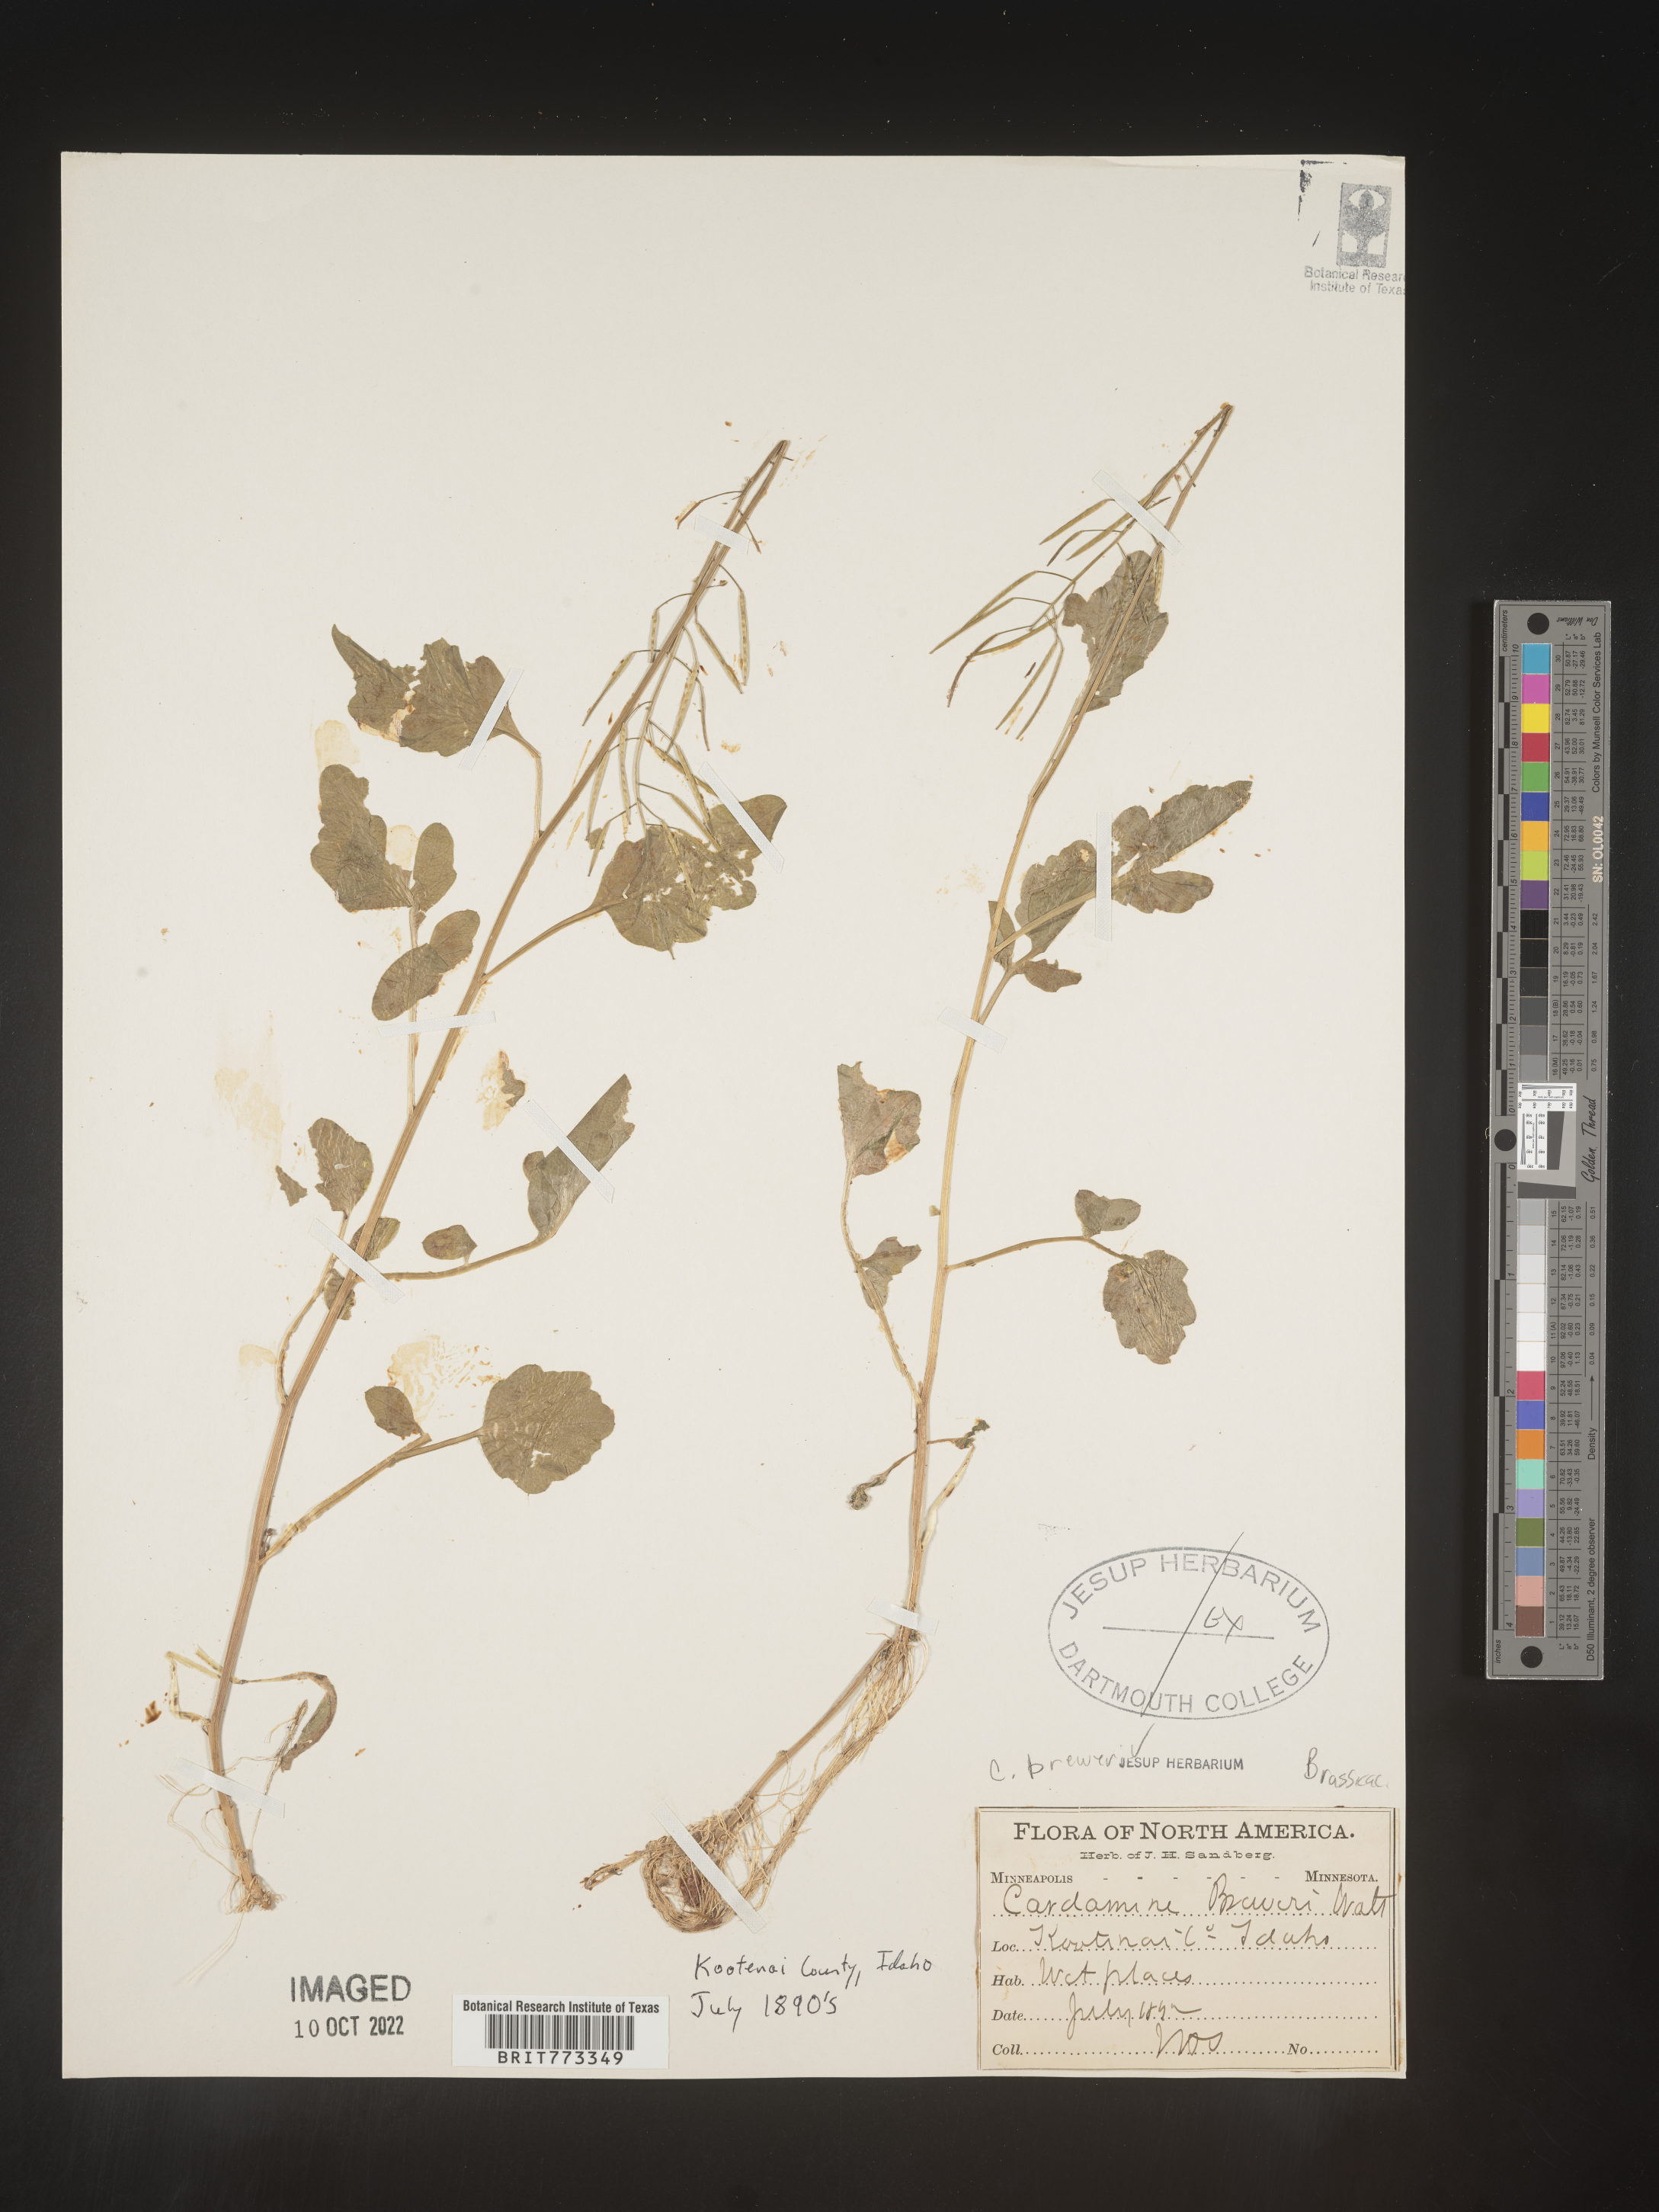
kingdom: Plantae
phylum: Tracheophyta
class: Magnoliopsida
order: Brassicales
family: Brassicaceae
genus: Cardamine
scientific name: Cardamine
